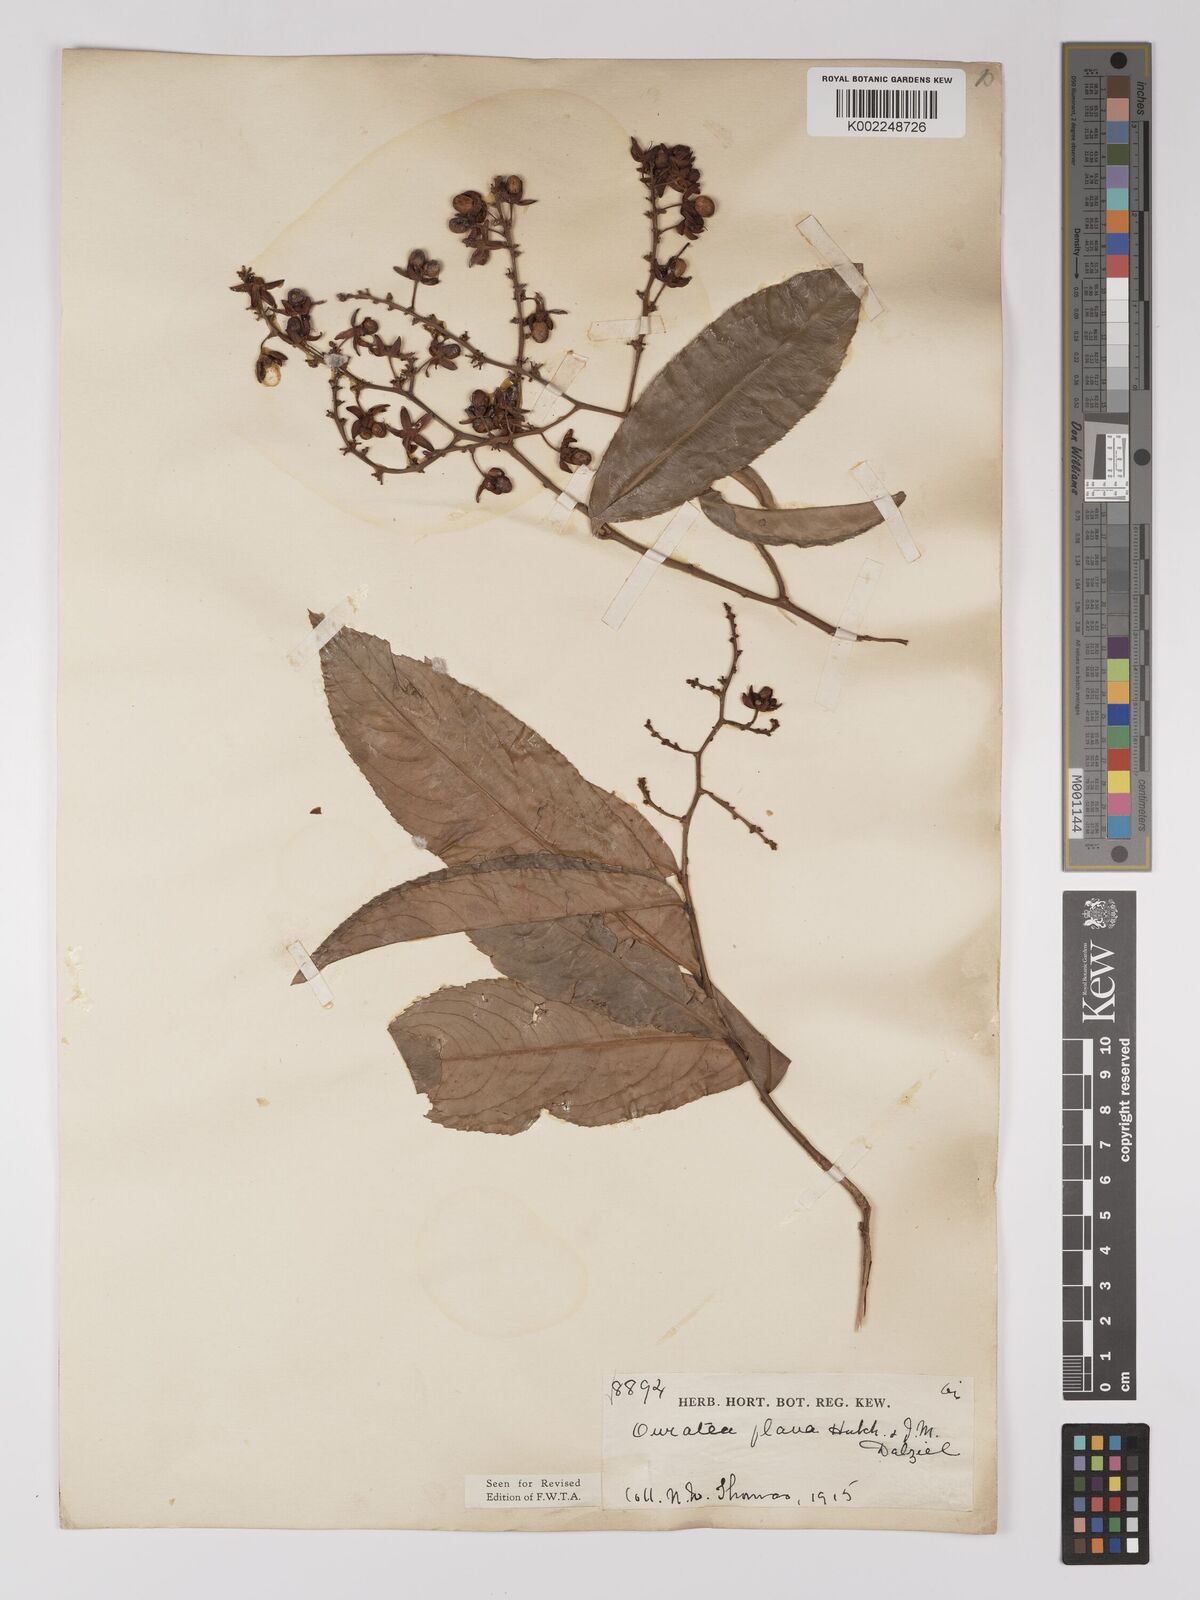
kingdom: Plantae
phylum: Tracheophyta
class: Magnoliopsida
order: Malpighiales
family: Ochnaceae
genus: Campylospermum
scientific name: Campylospermum flavum
